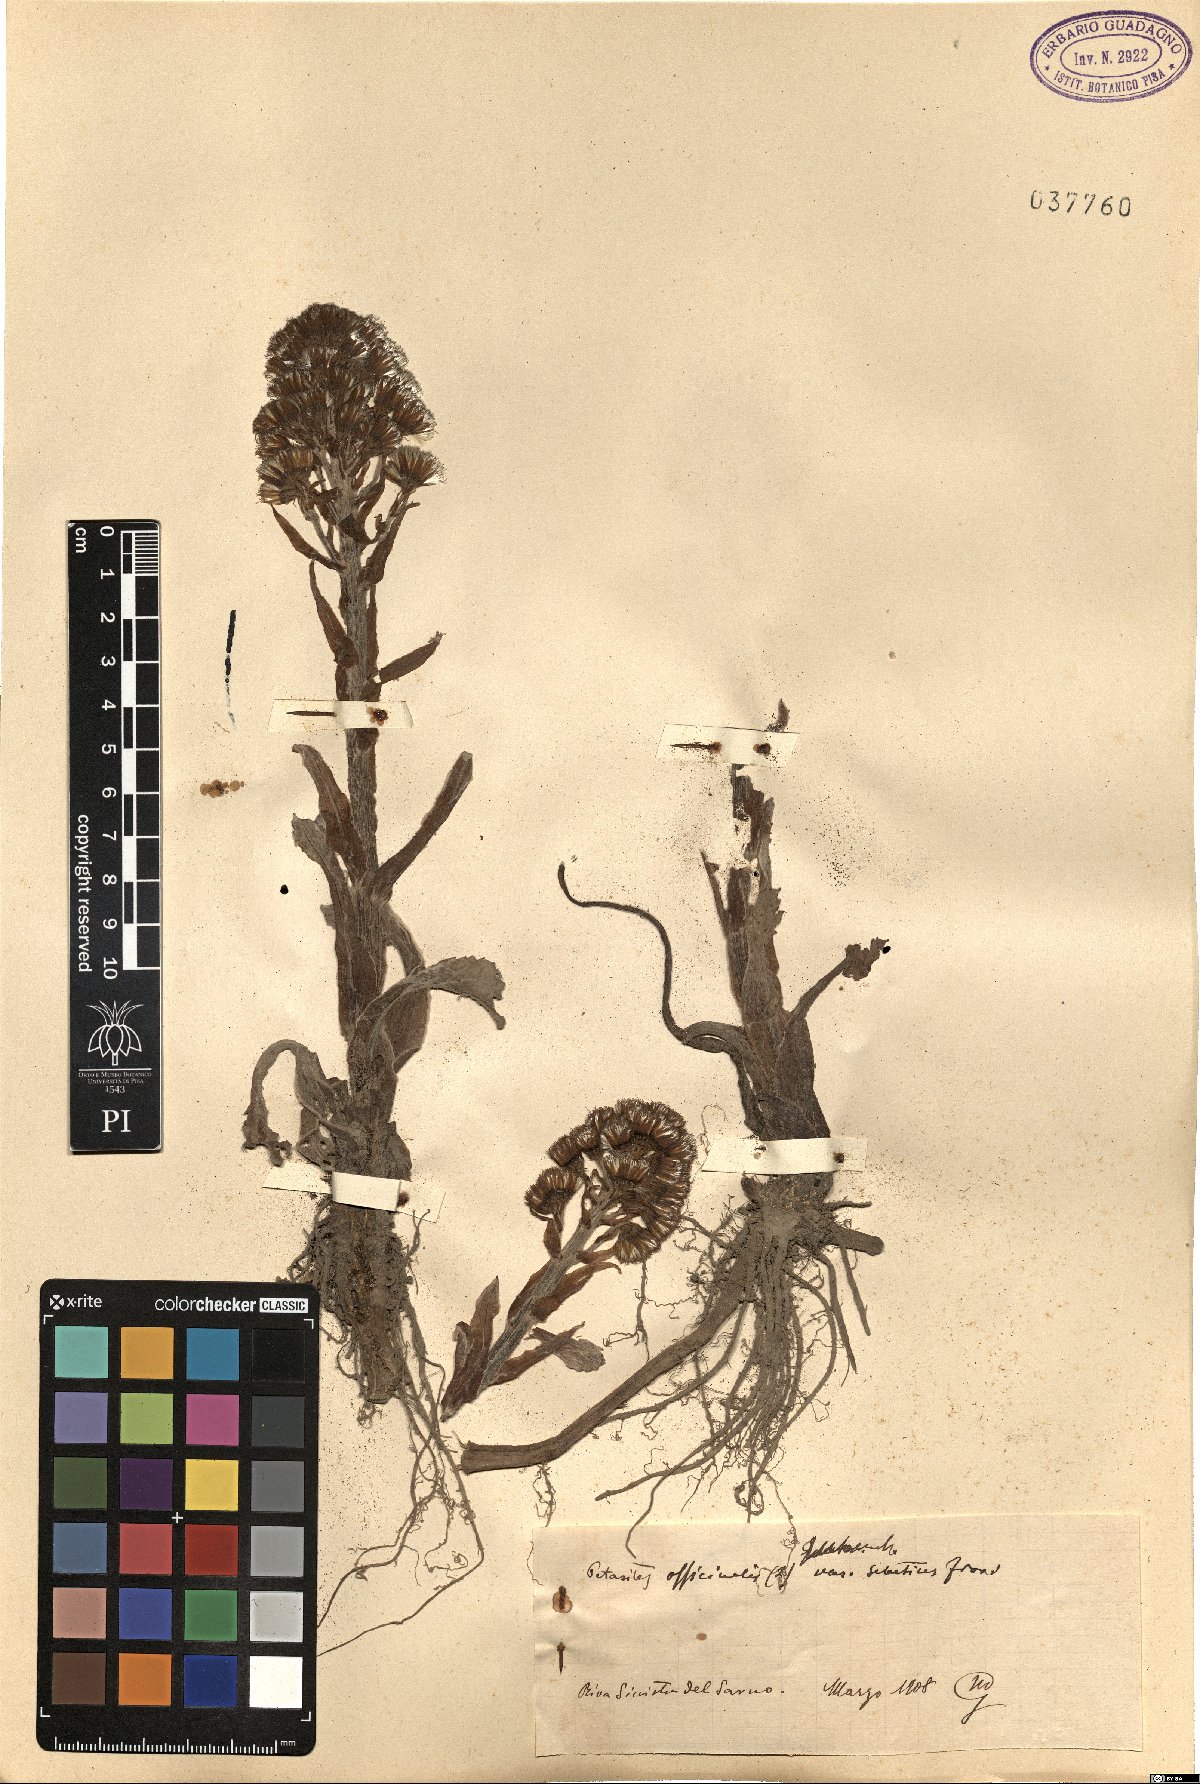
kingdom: Plantae
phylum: Tracheophyta
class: Magnoliopsida
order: Asterales
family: Asteraceae
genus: Petasites
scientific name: Petasites hybridus
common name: Butterbur
